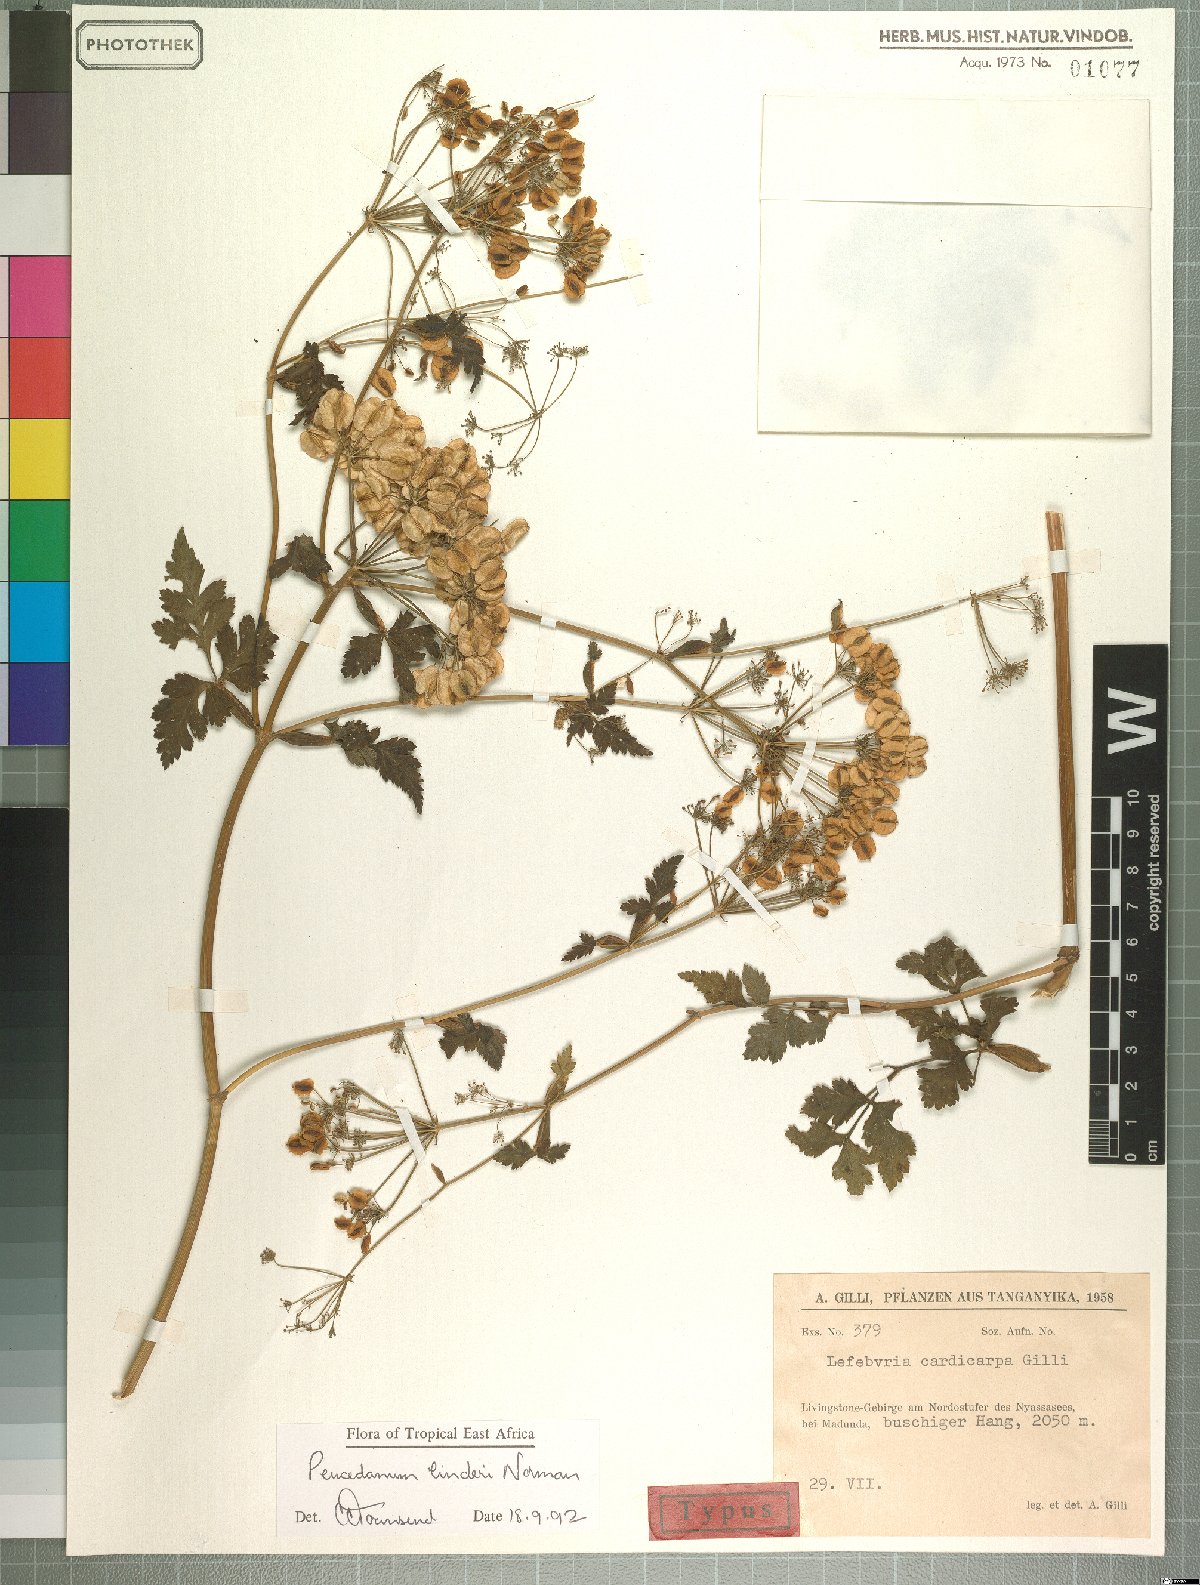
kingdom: Plantae
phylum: Tracheophyta
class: Magnoliopsida
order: Apiales
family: Apiaceae
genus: Afroligusticum
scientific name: Afroligusticum linderi
